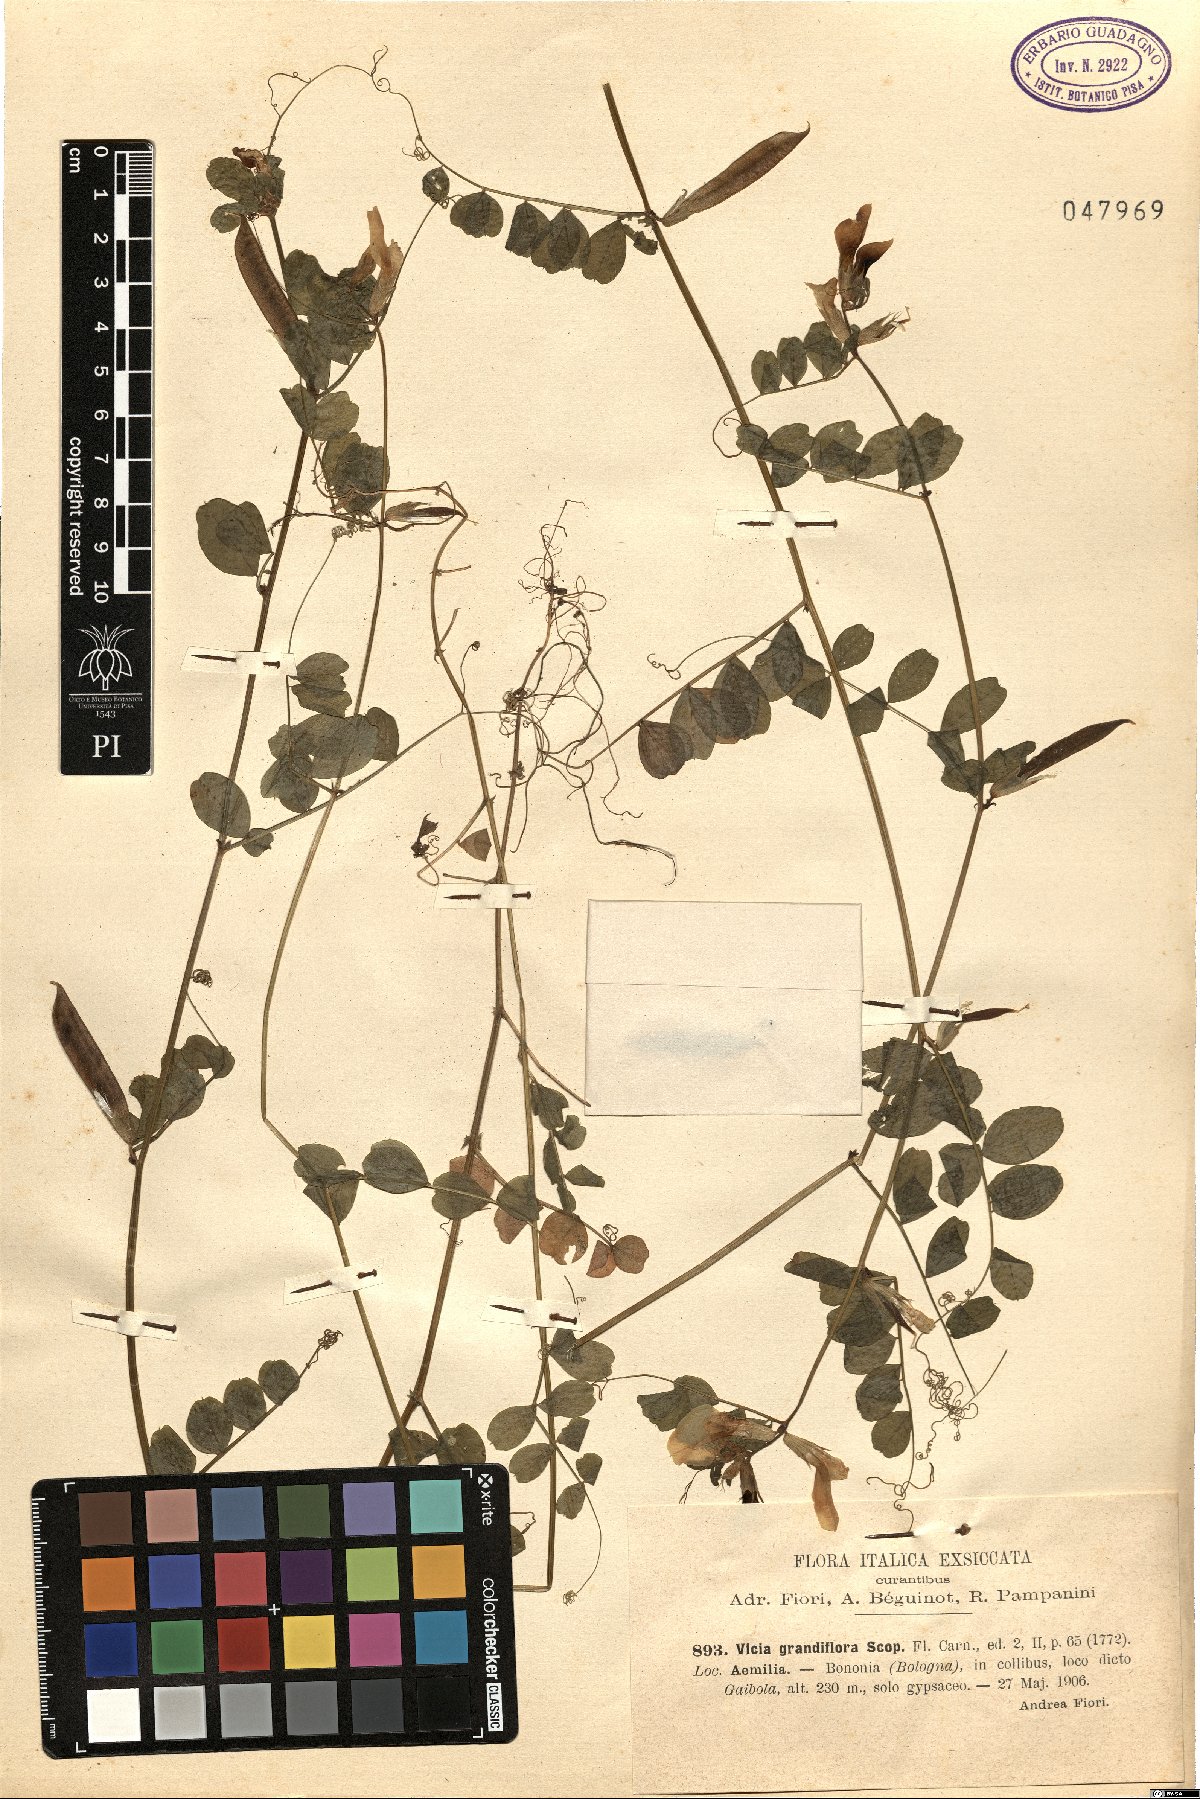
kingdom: Plantae
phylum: Tracheophyta
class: Magnoliopsida
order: Fabales
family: Fabaceae
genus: Vicia
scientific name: Vicia grandiflora
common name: Large yellow vetch
